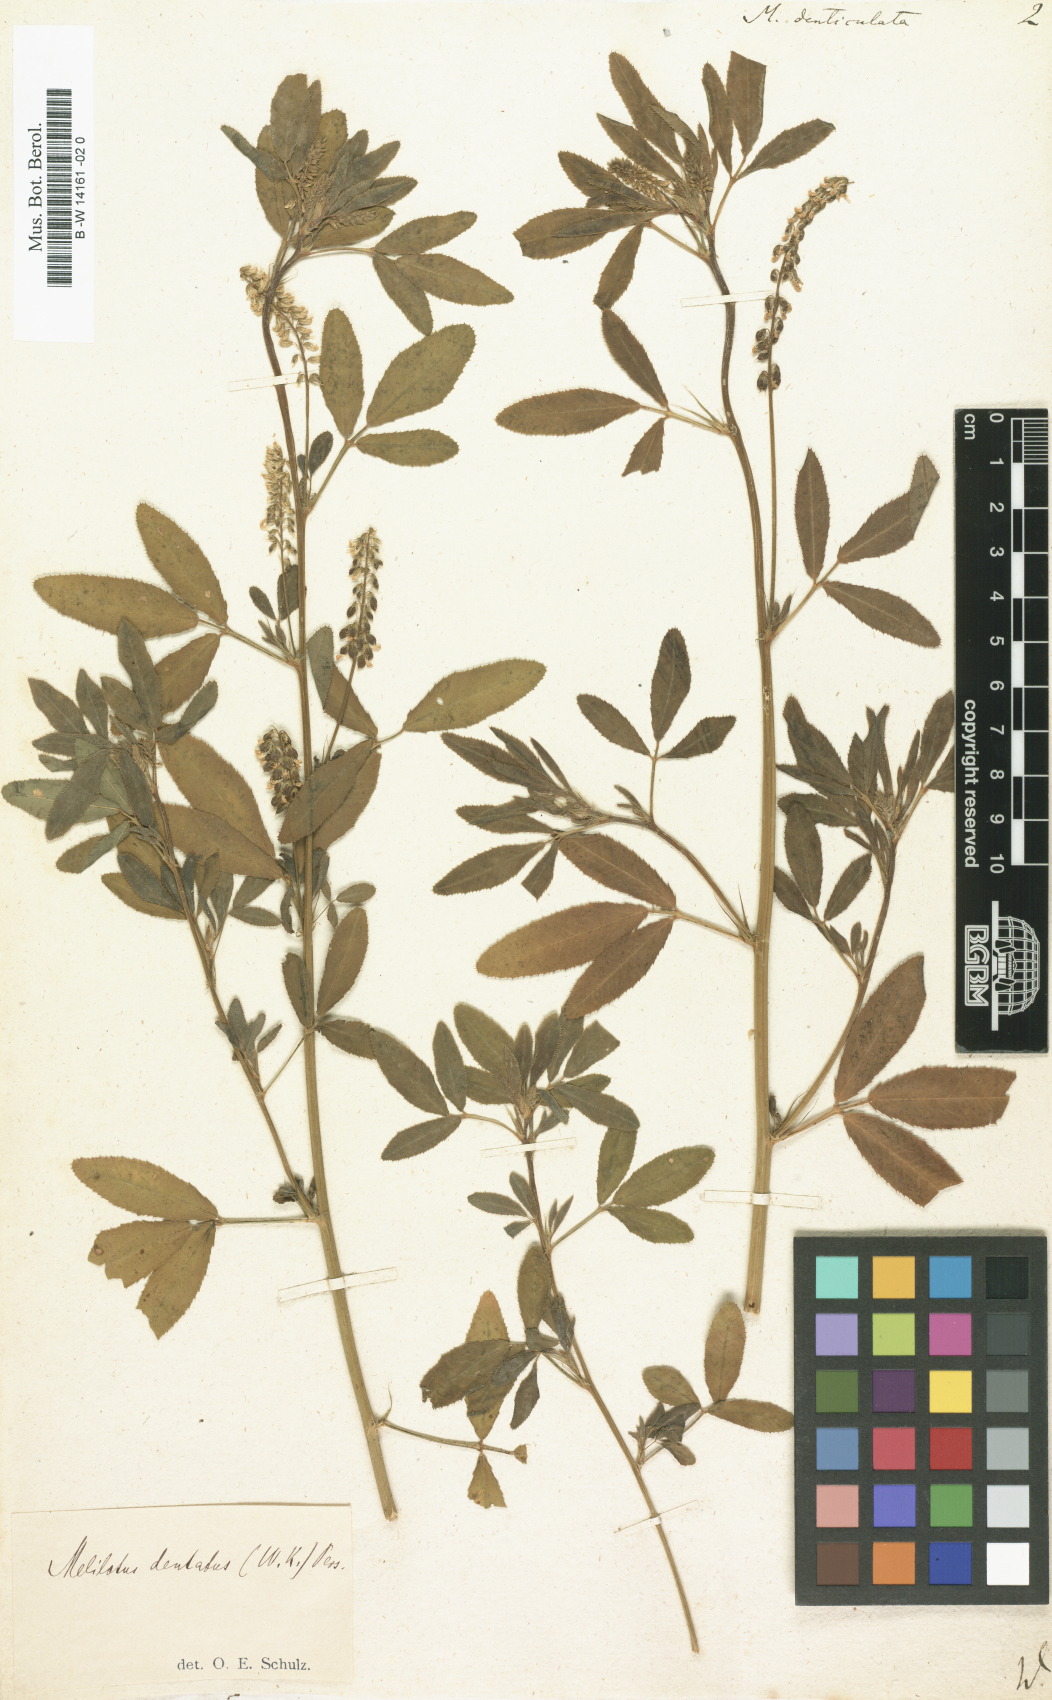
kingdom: Plantae
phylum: Tracheophyta
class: Magnoliopsida
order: Fabales
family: Fabaceae
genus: Melilotus
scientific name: Melilotus
